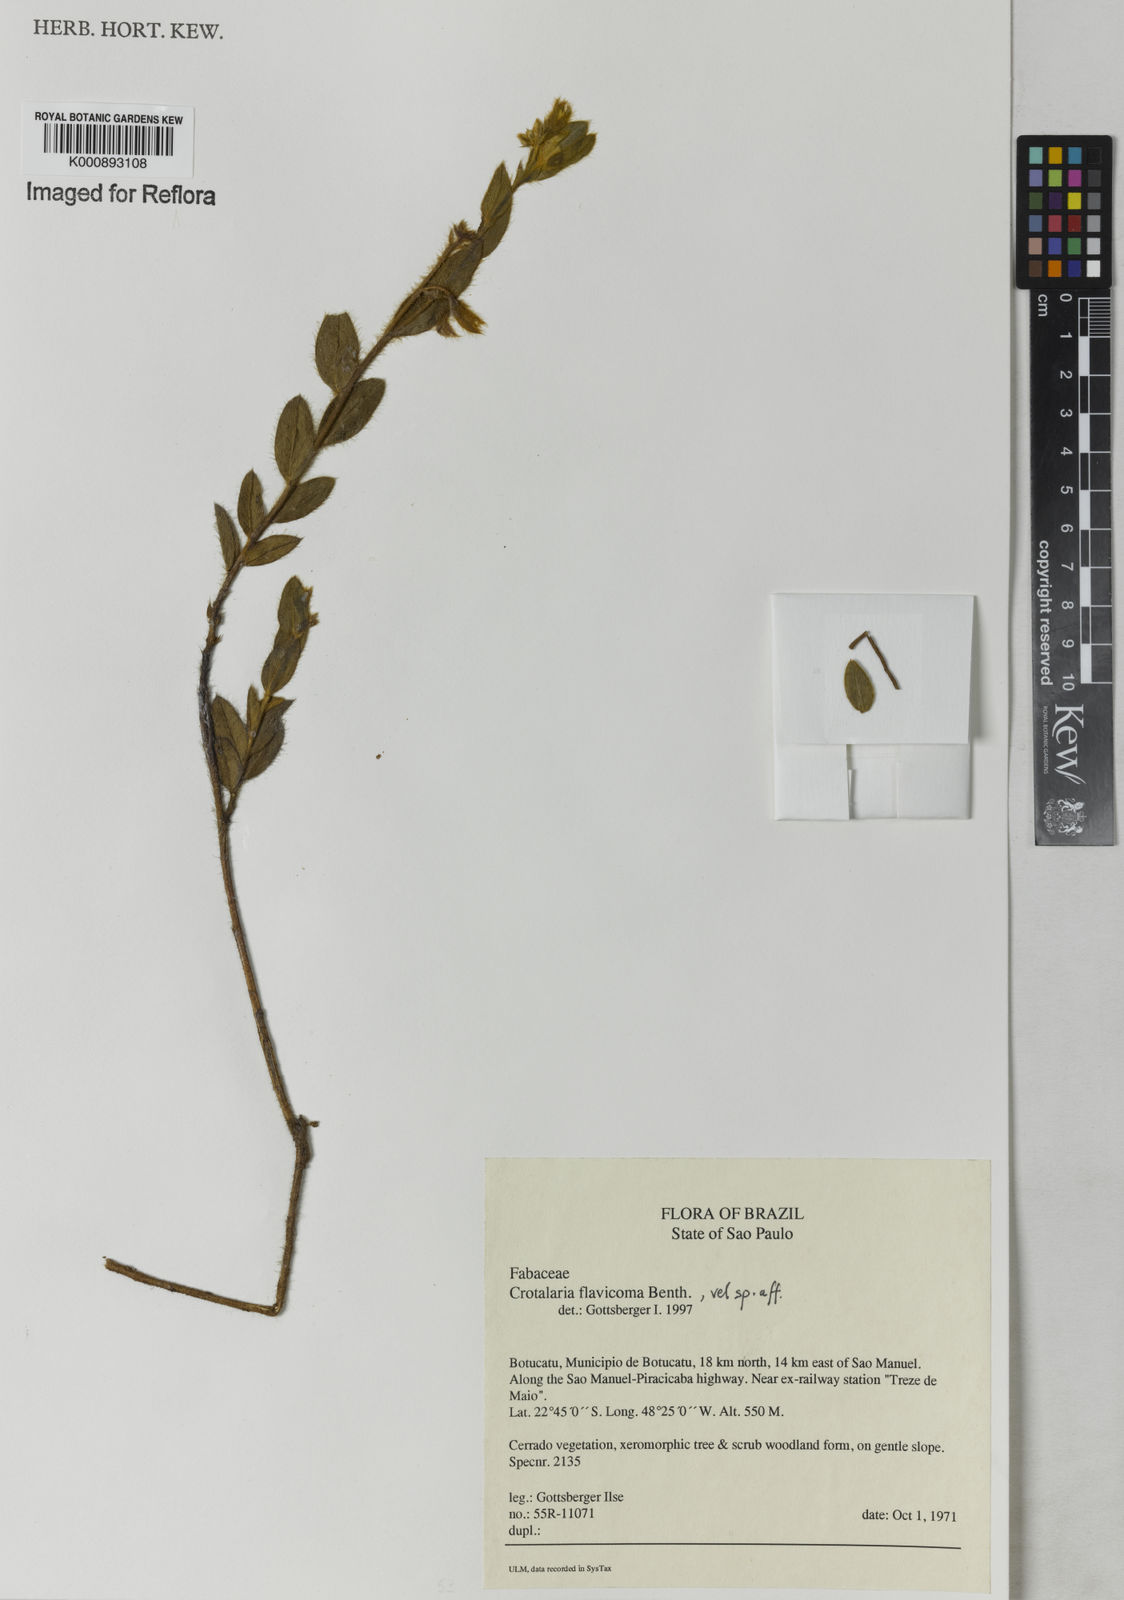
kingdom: Plantae
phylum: Tracheophyta
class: Magnoliopsida
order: Fabales
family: Fabaceae
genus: Crotalaria
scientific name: Crotalaria velutina
